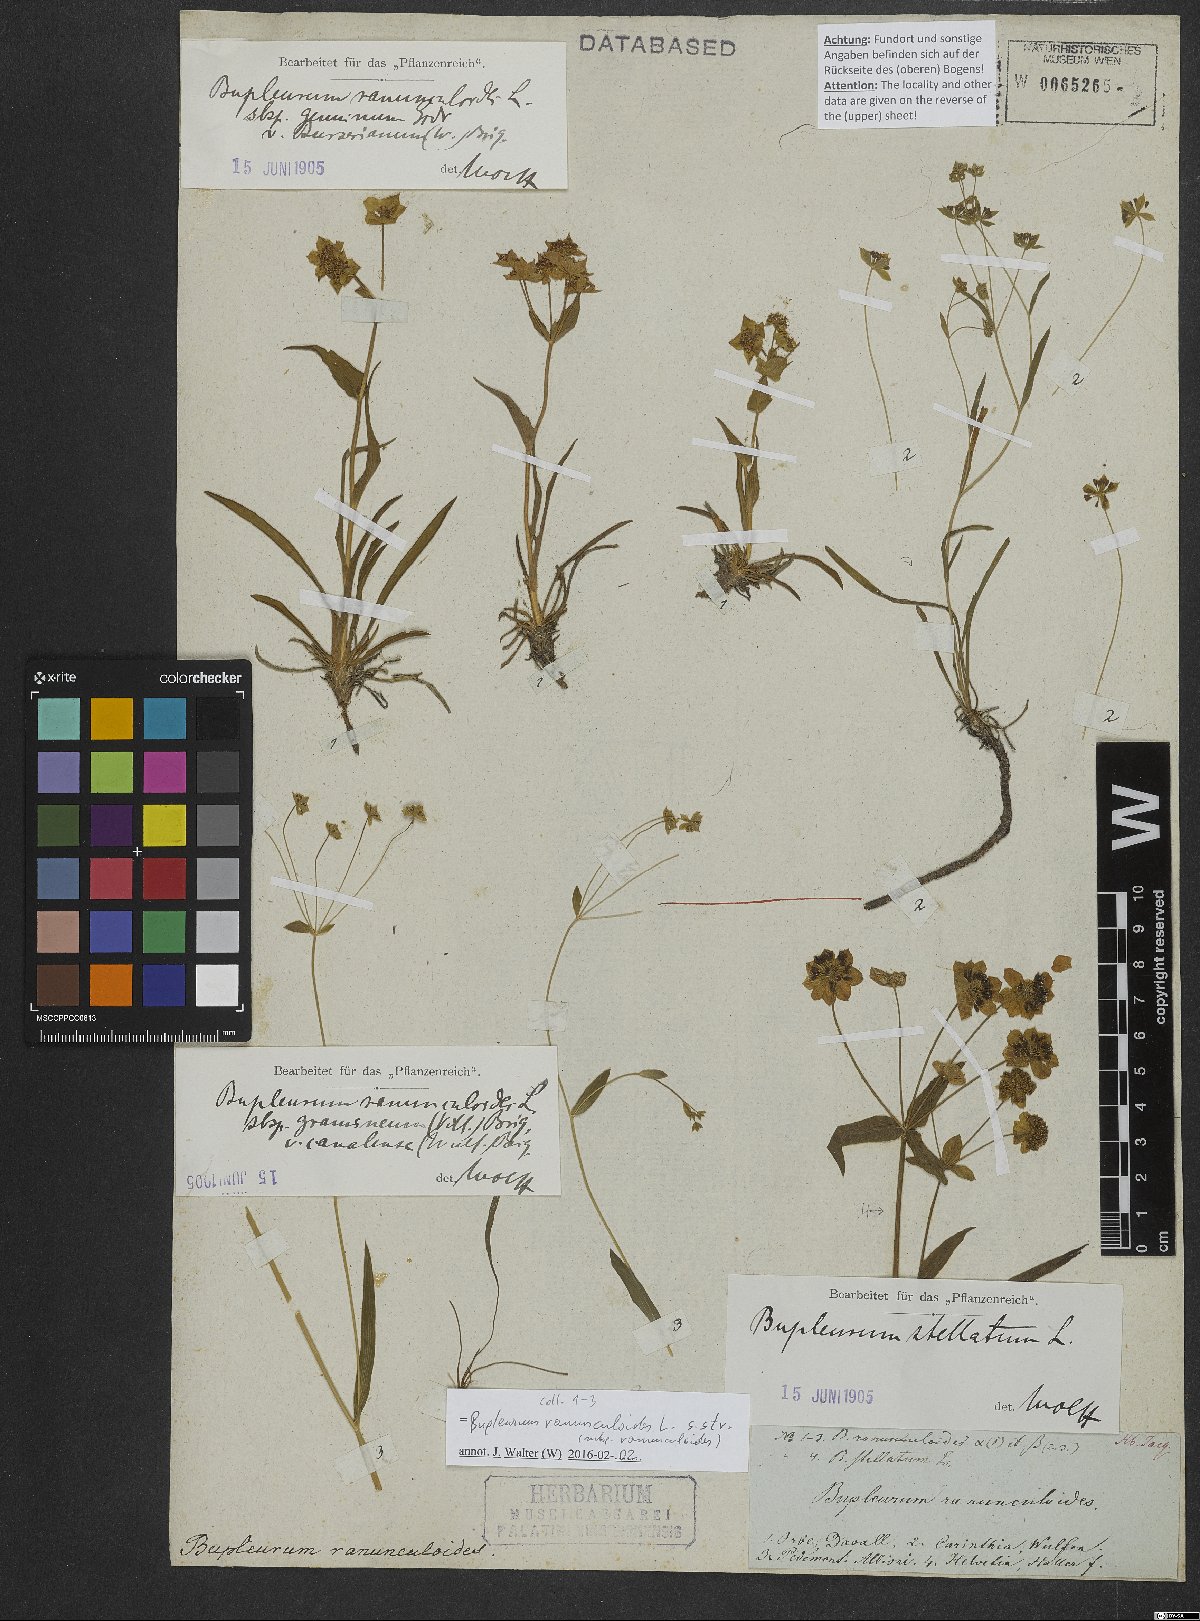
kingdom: Plantae
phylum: Tracheophyta
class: Magnoliopsida
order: Apiales
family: Apiaceae
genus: Bupleurum
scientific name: Bupleurum stellatum
